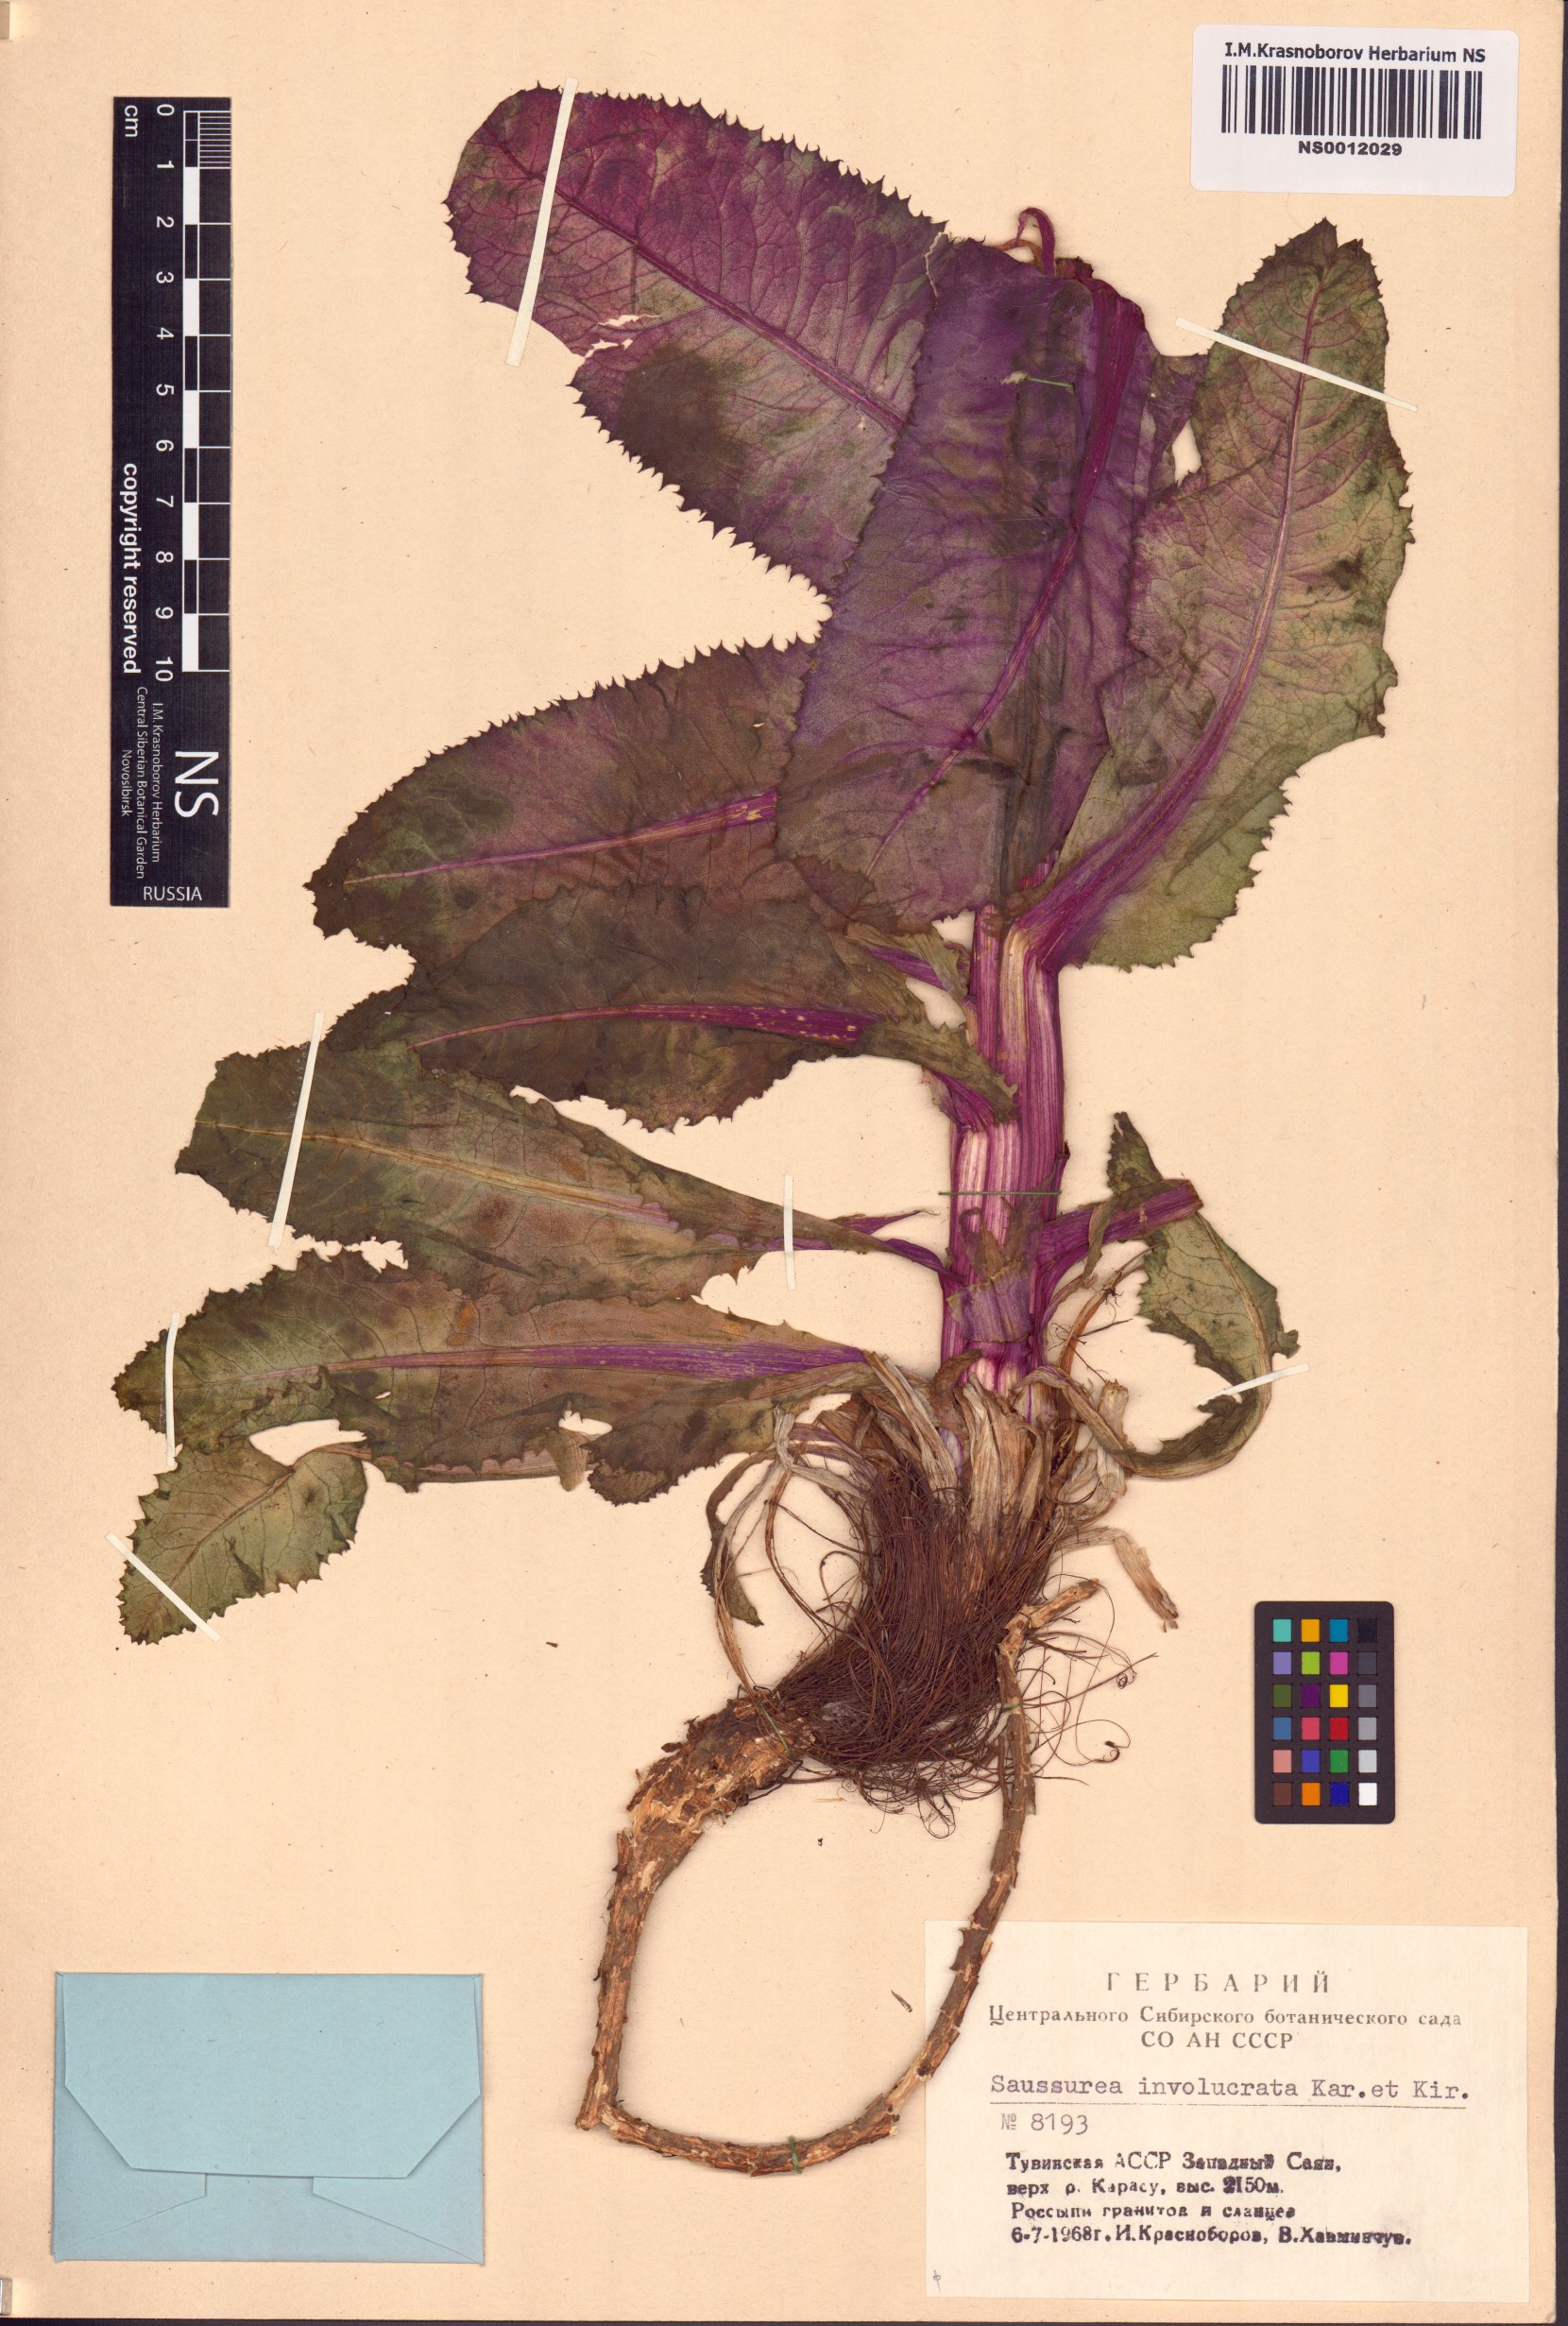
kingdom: Plantae
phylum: Tracheophyta
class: Magnoliopsida
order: Asterales
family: Asteraceae
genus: Saussurea
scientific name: Saussurea involucrata
